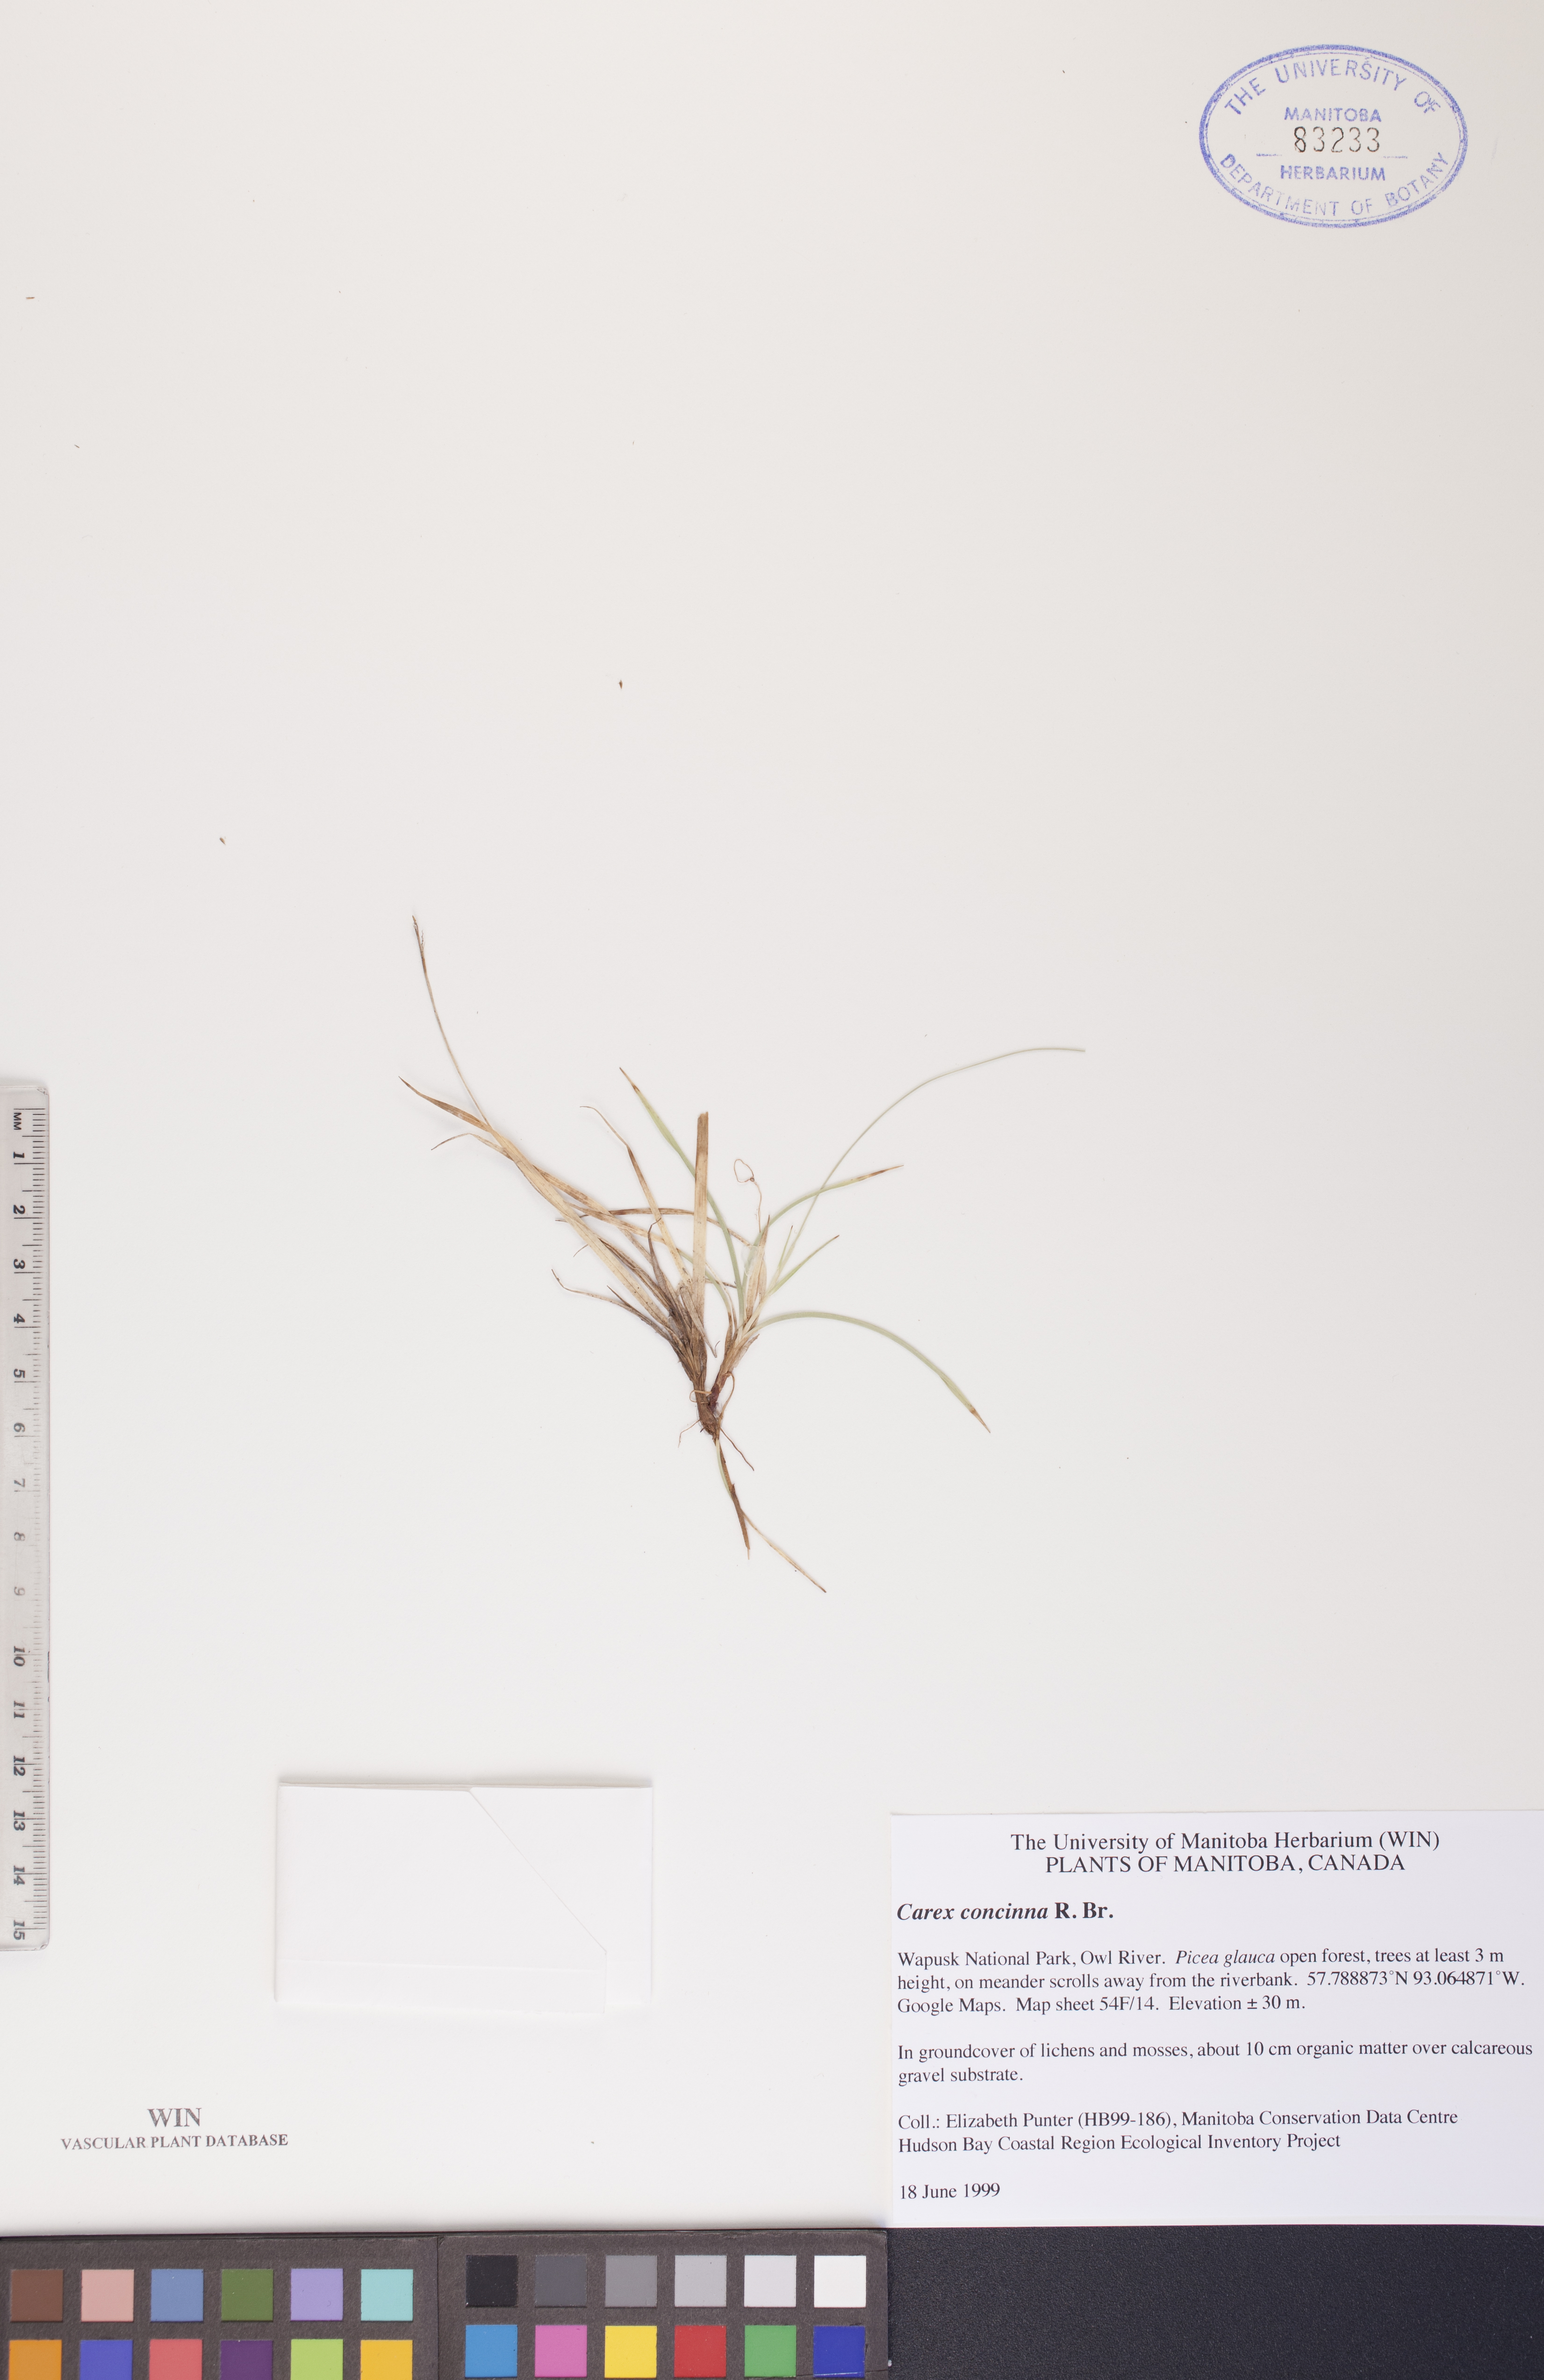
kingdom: Plantae
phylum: Tracheophyta
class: Liliopsida
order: Poales
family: Cyperaceae
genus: Carex
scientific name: Carex concinna
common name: Beautiful sedge
